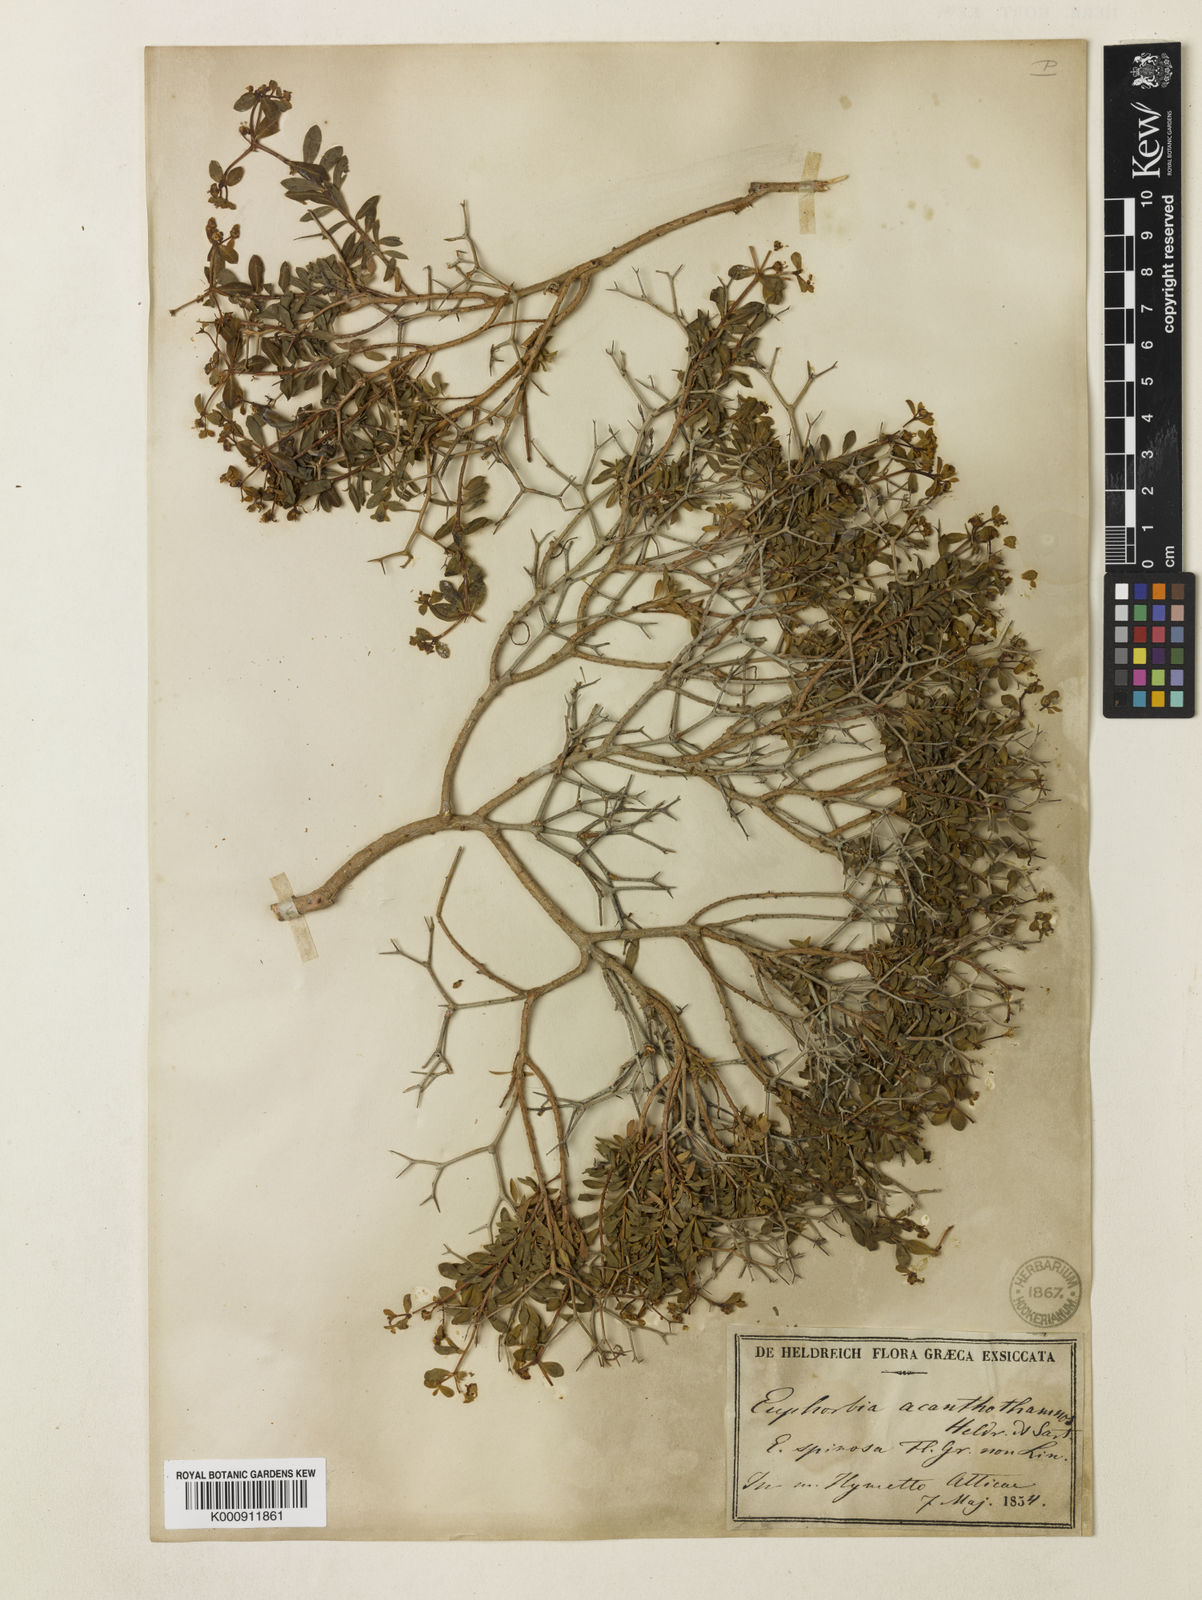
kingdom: Plantae
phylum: Tracheophyta
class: Magnoliopsida
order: Malpighiales
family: Euphorbiaceae
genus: Euphorbia
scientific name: Euphorbia acanthothamnos
